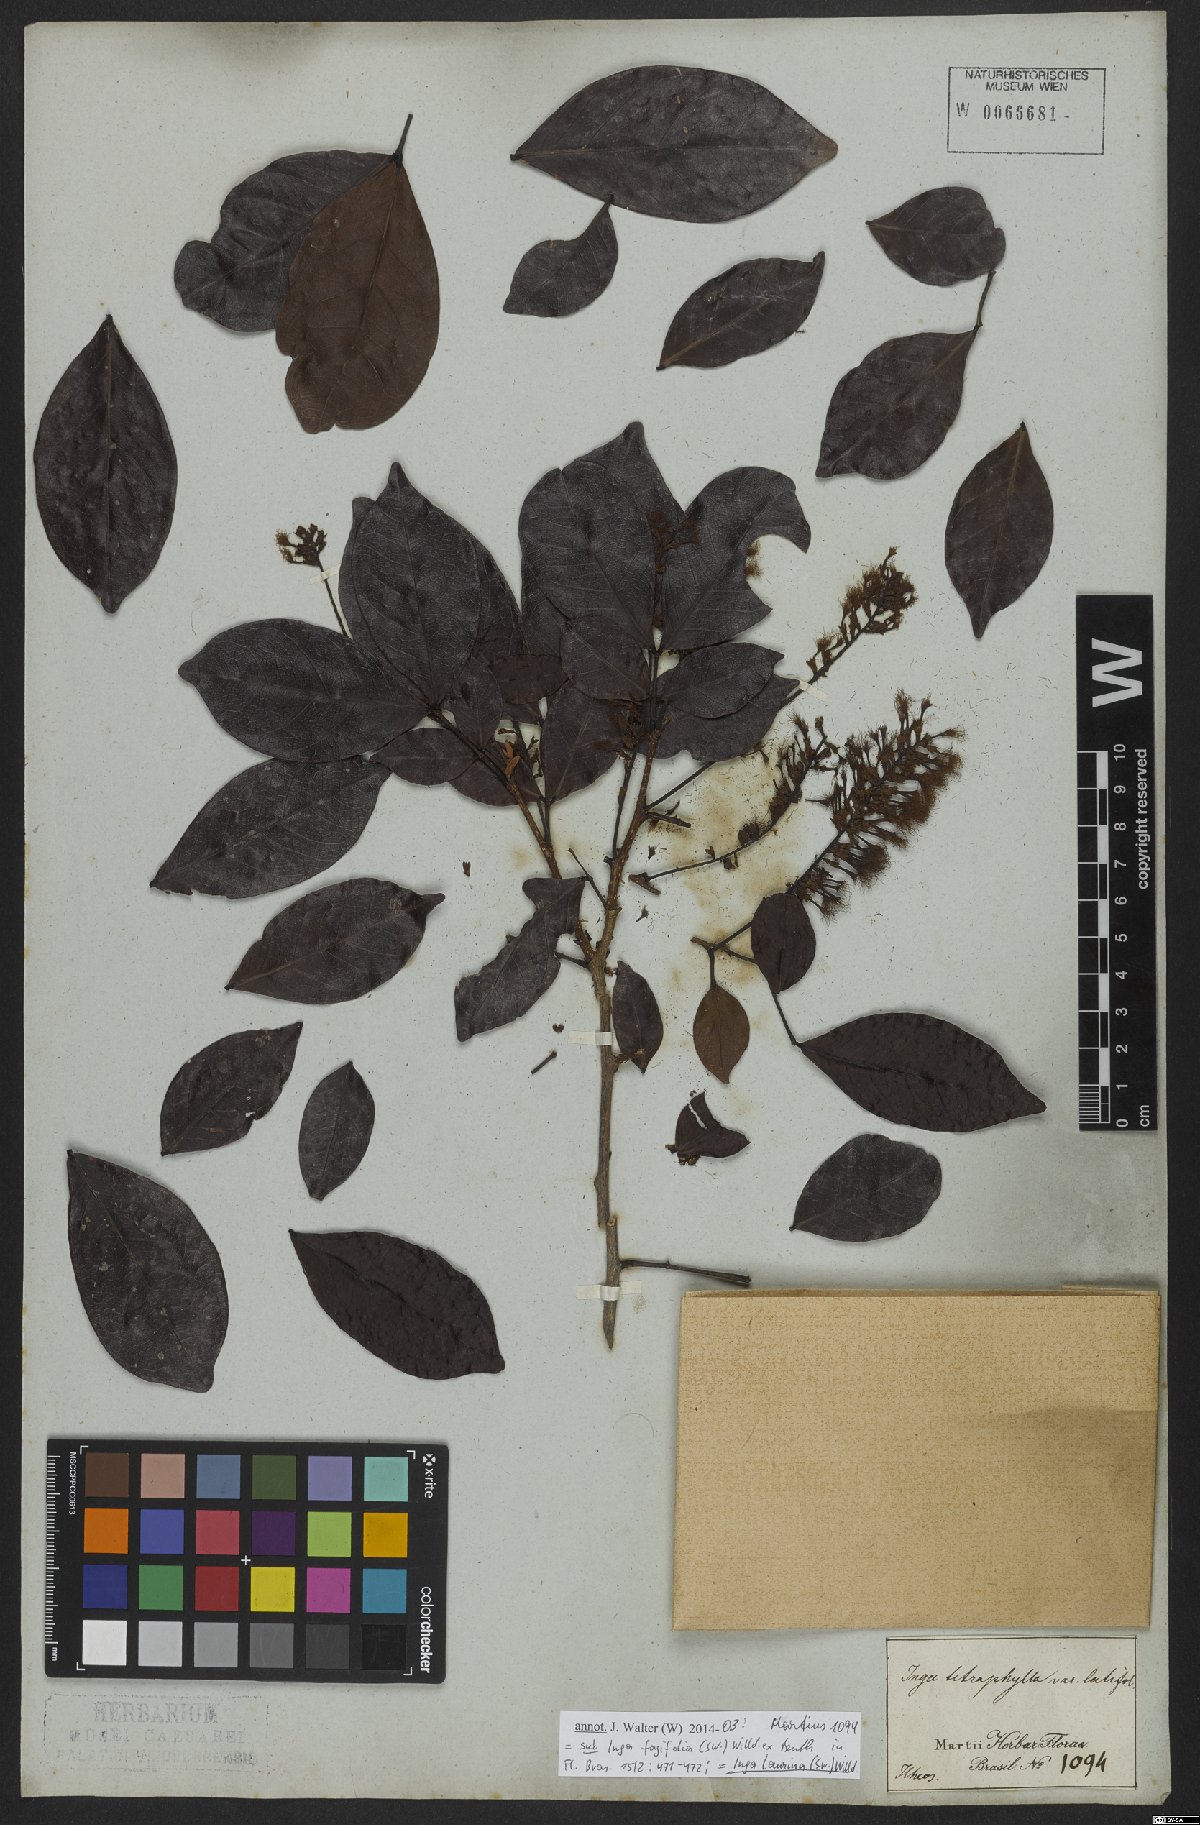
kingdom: Plantae
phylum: Tracheophyta
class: Magnoliopsida
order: Fabales
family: Fabaceae
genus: Inga
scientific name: Inga laurina
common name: Red wood
